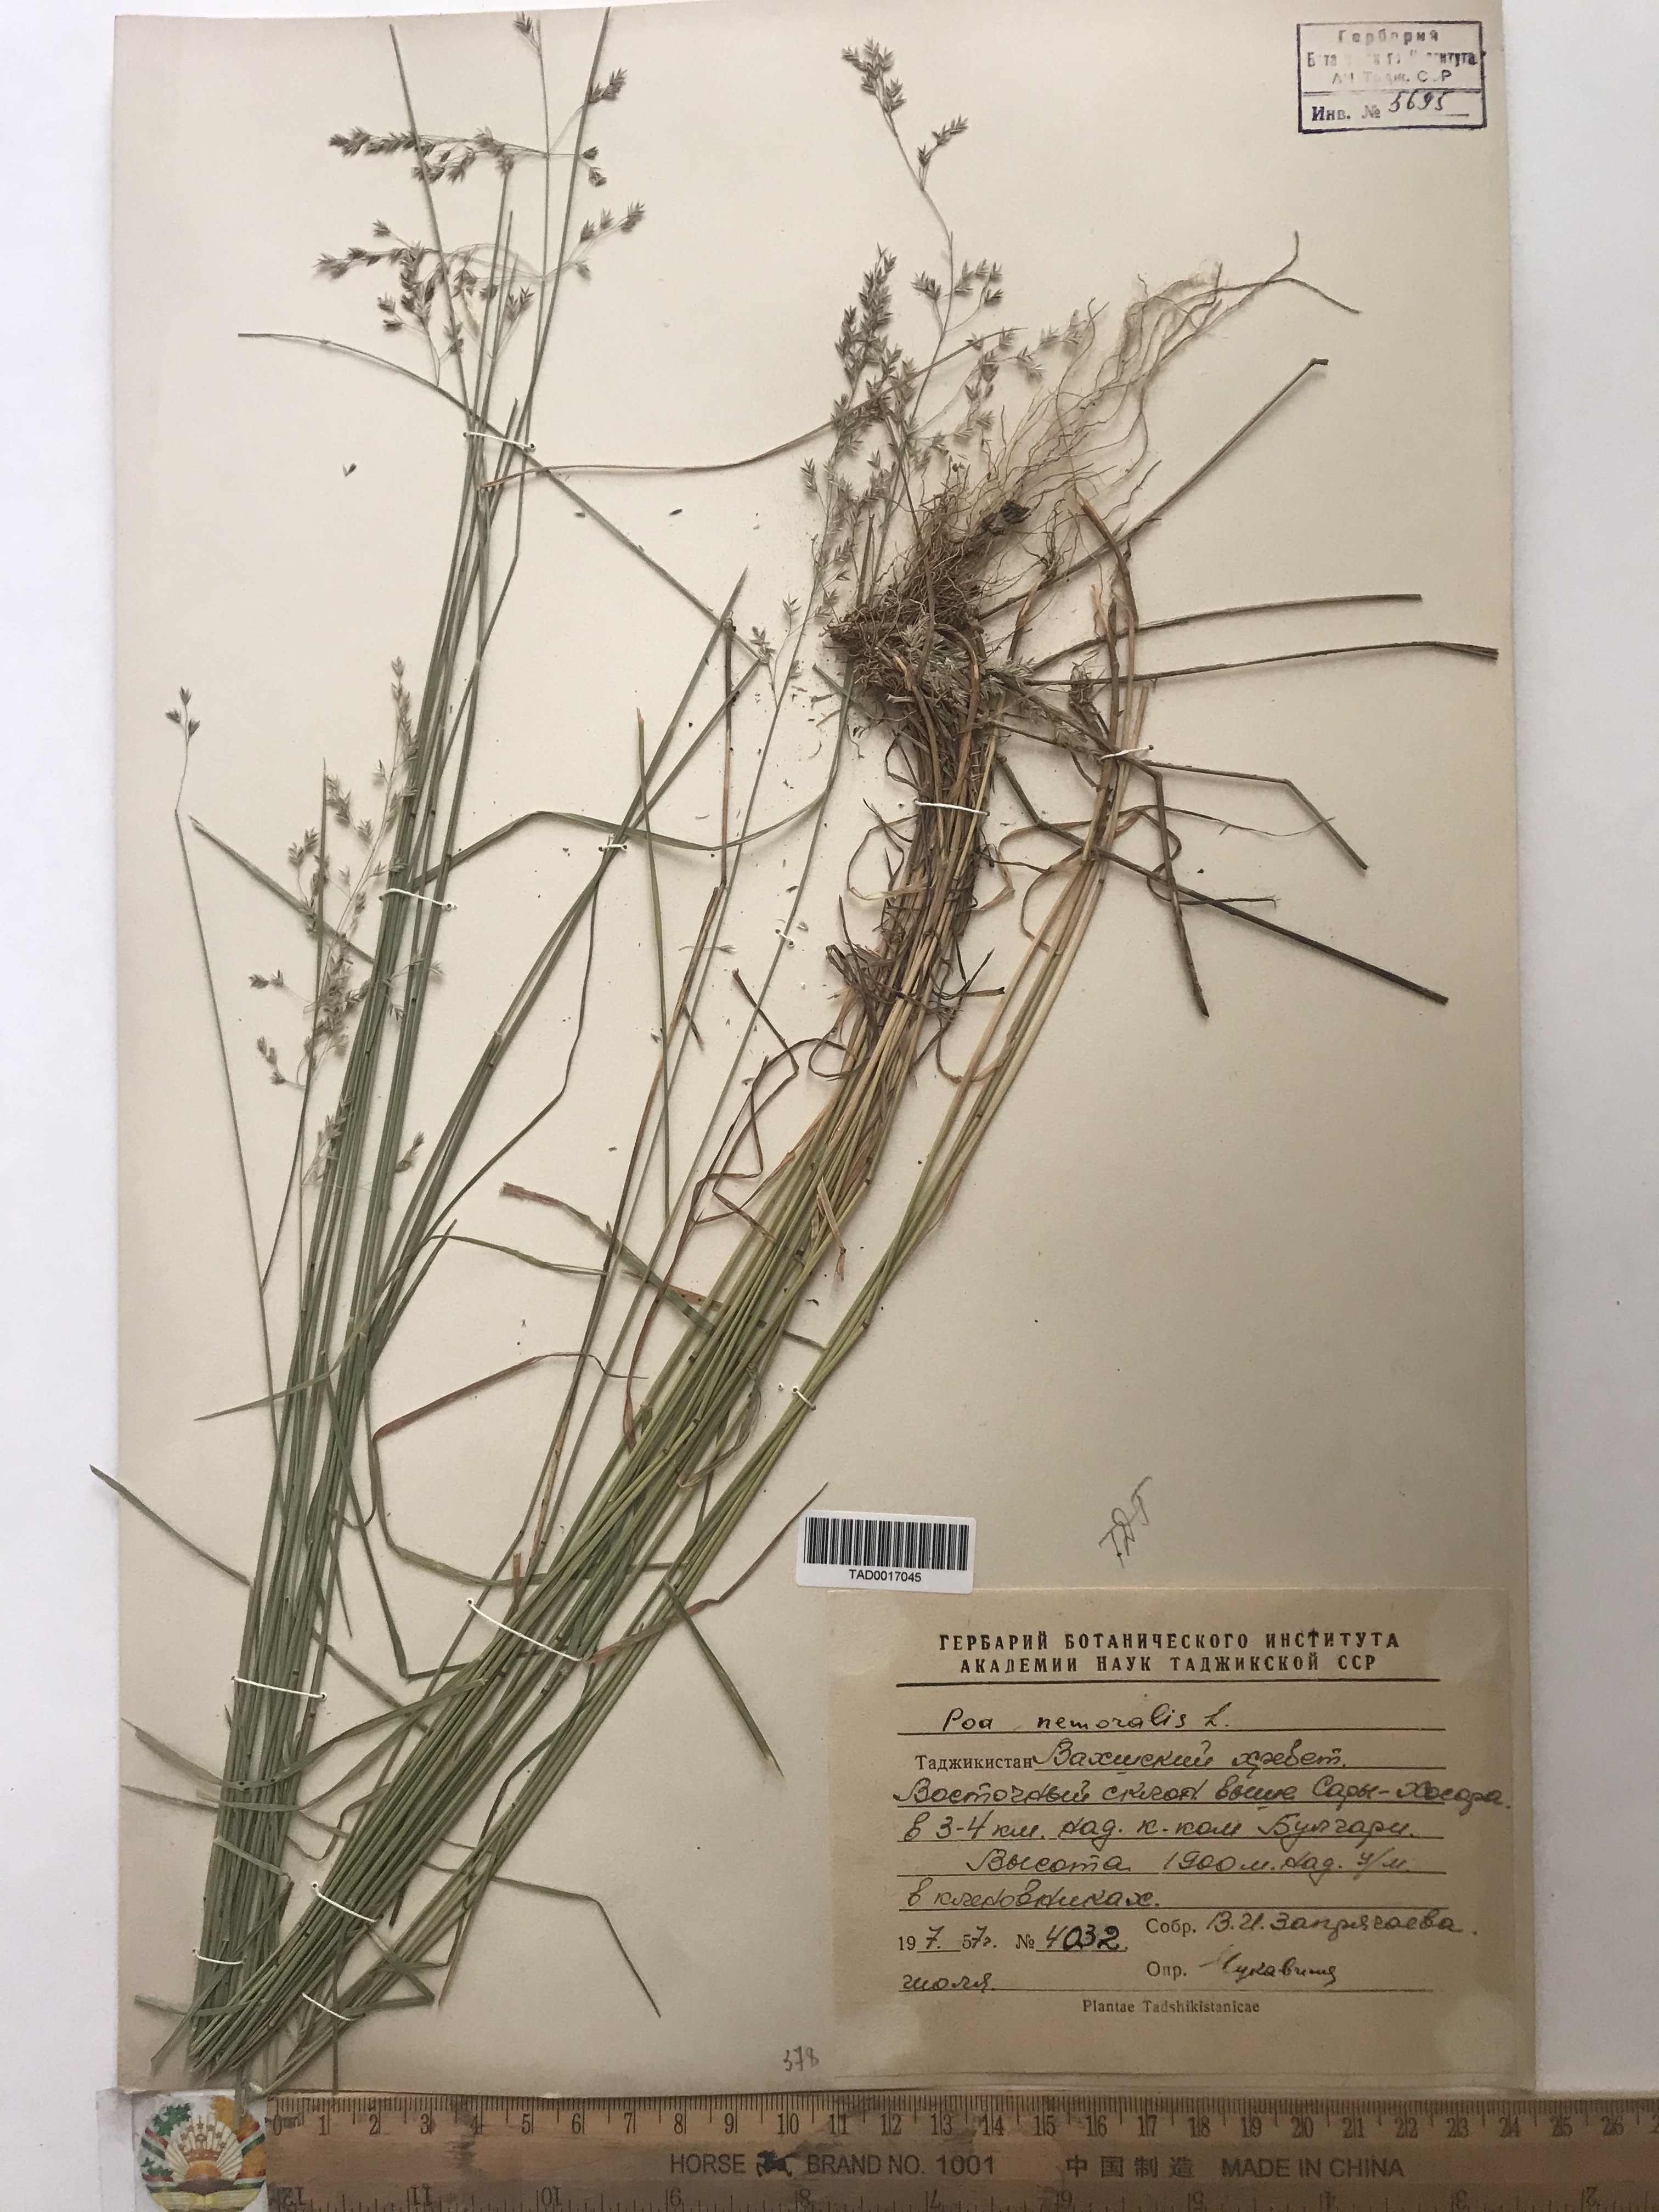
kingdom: Plantae
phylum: Tracheophyta
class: Liliopsida
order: Poales
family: Poaceae
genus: Poa
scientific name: Poa nemoralis
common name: Wood bluegrass
